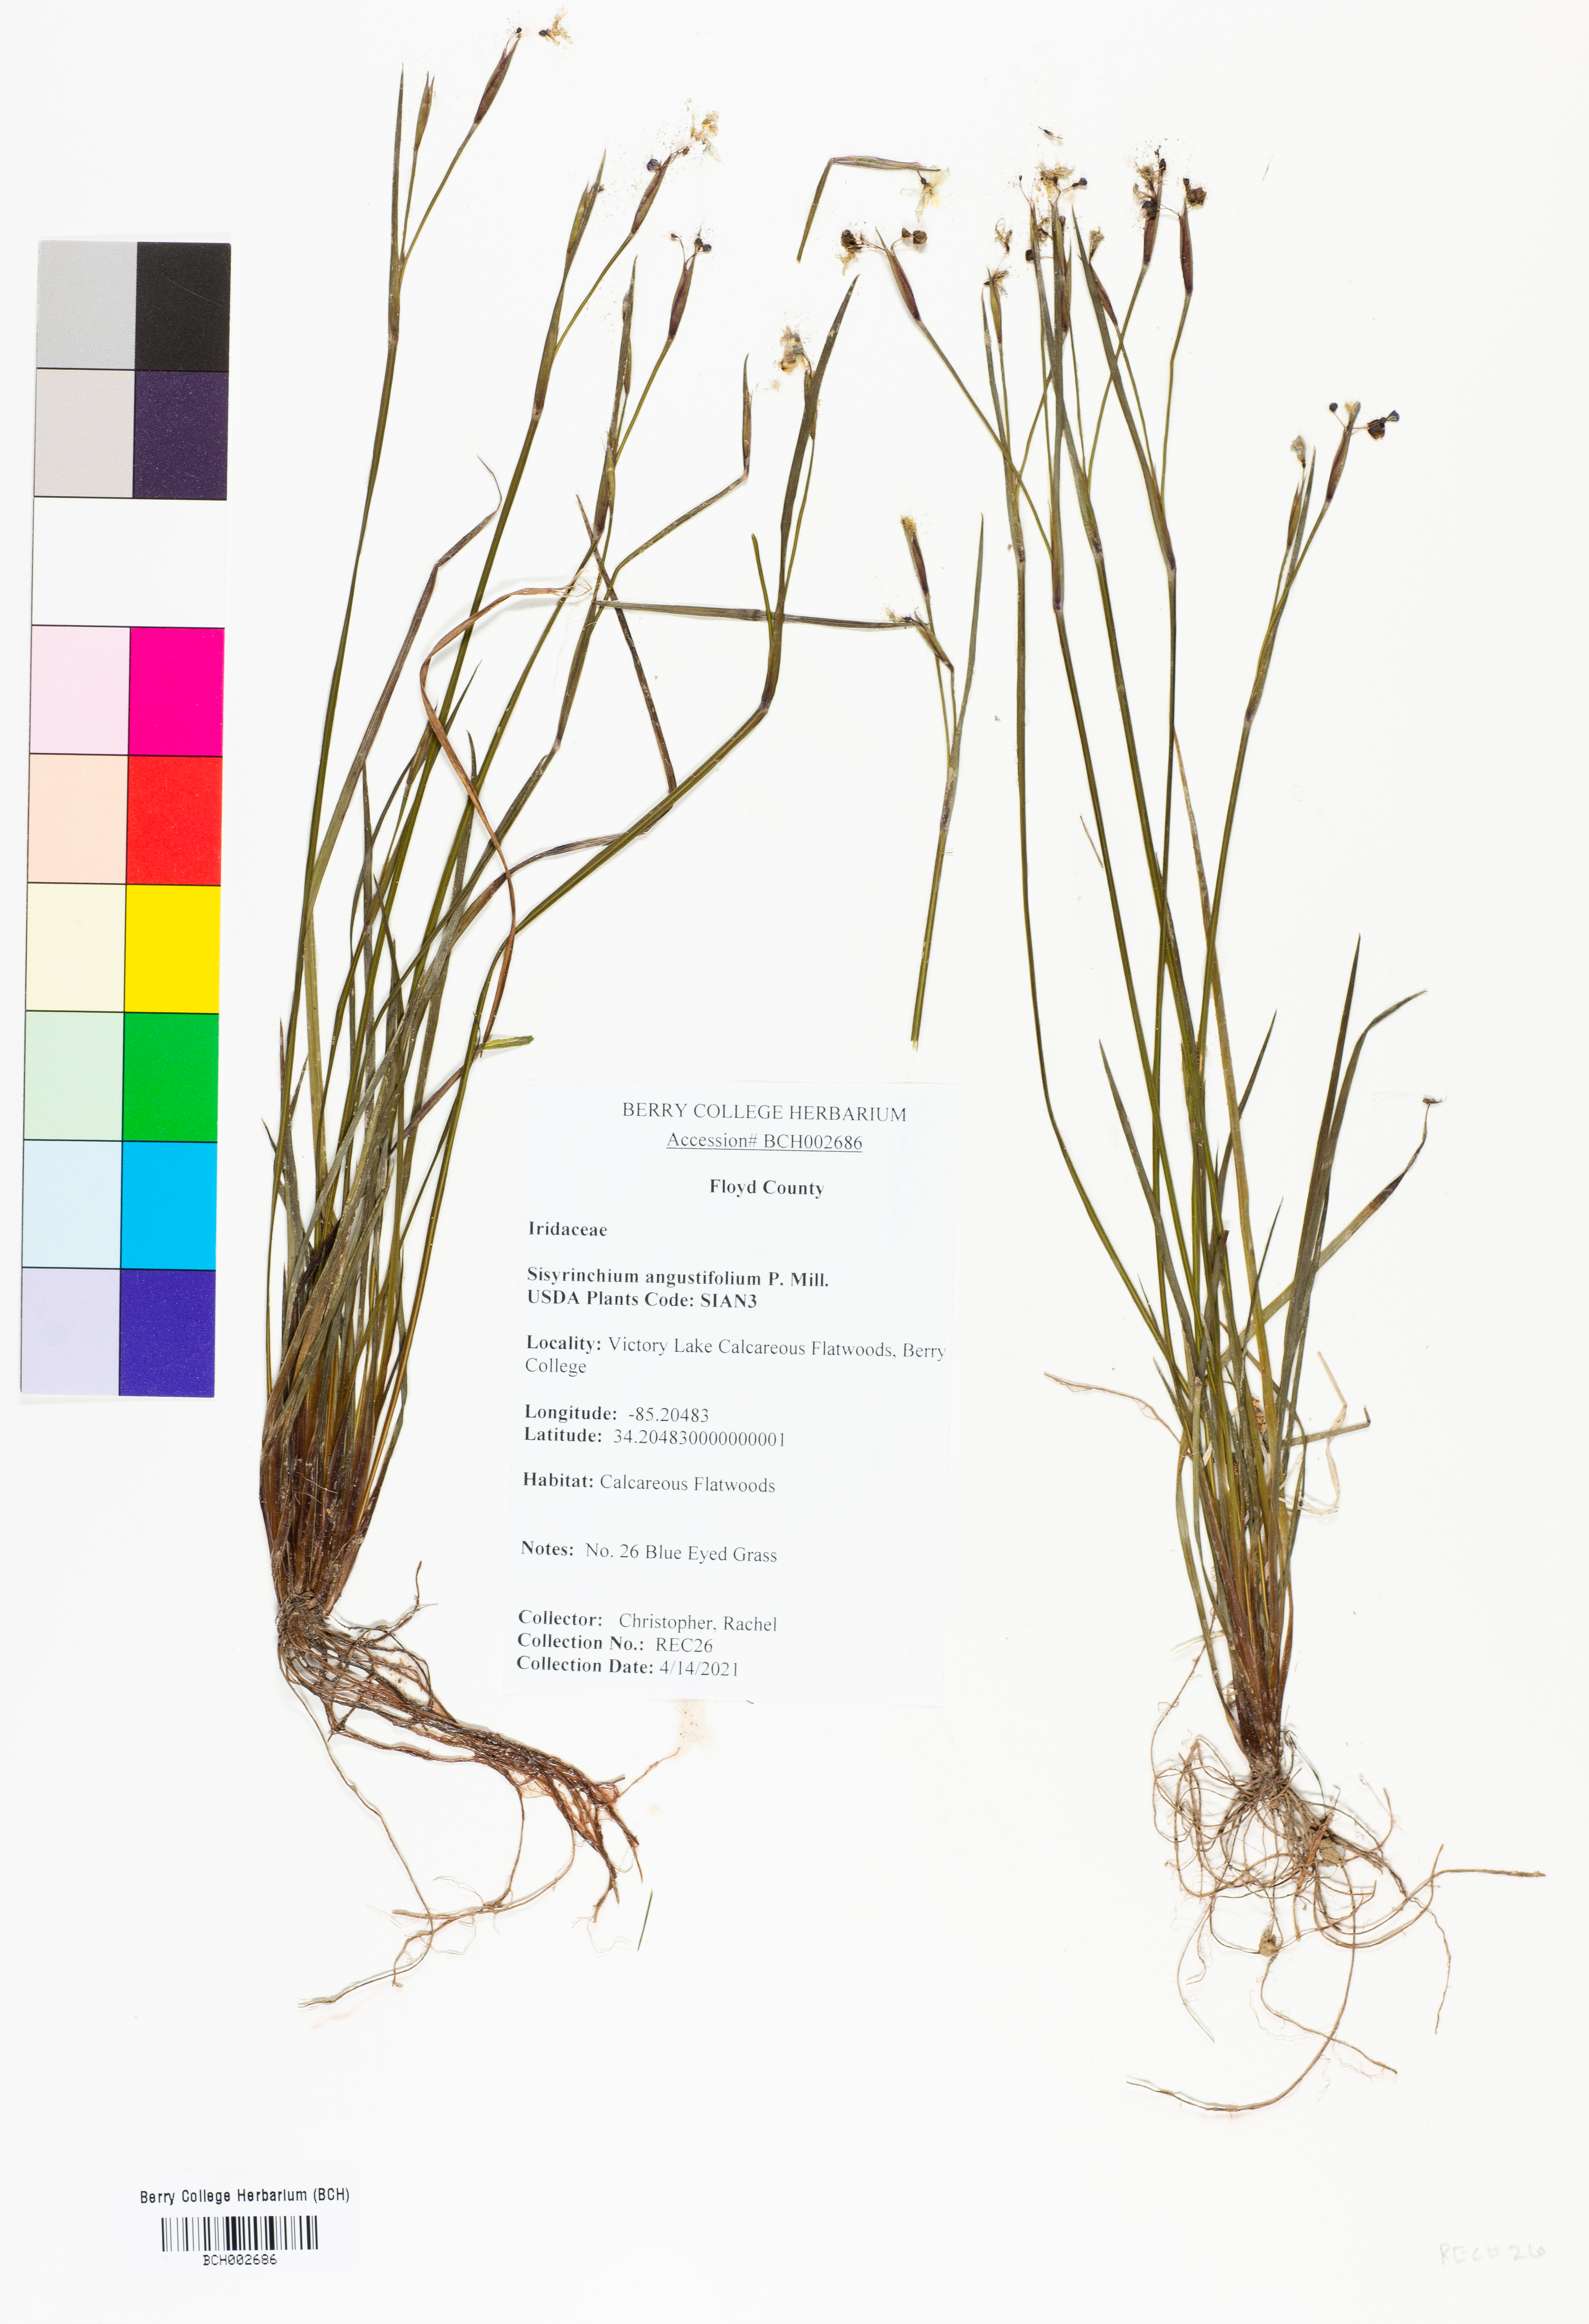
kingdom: Plantae
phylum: Tracheophyta
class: Liliopsida
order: Asparagales
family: Iridaceae
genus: Sisyrinchium
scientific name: Sisyrinchium angustifolium
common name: Narrow-leaf blue-eyed-grass
